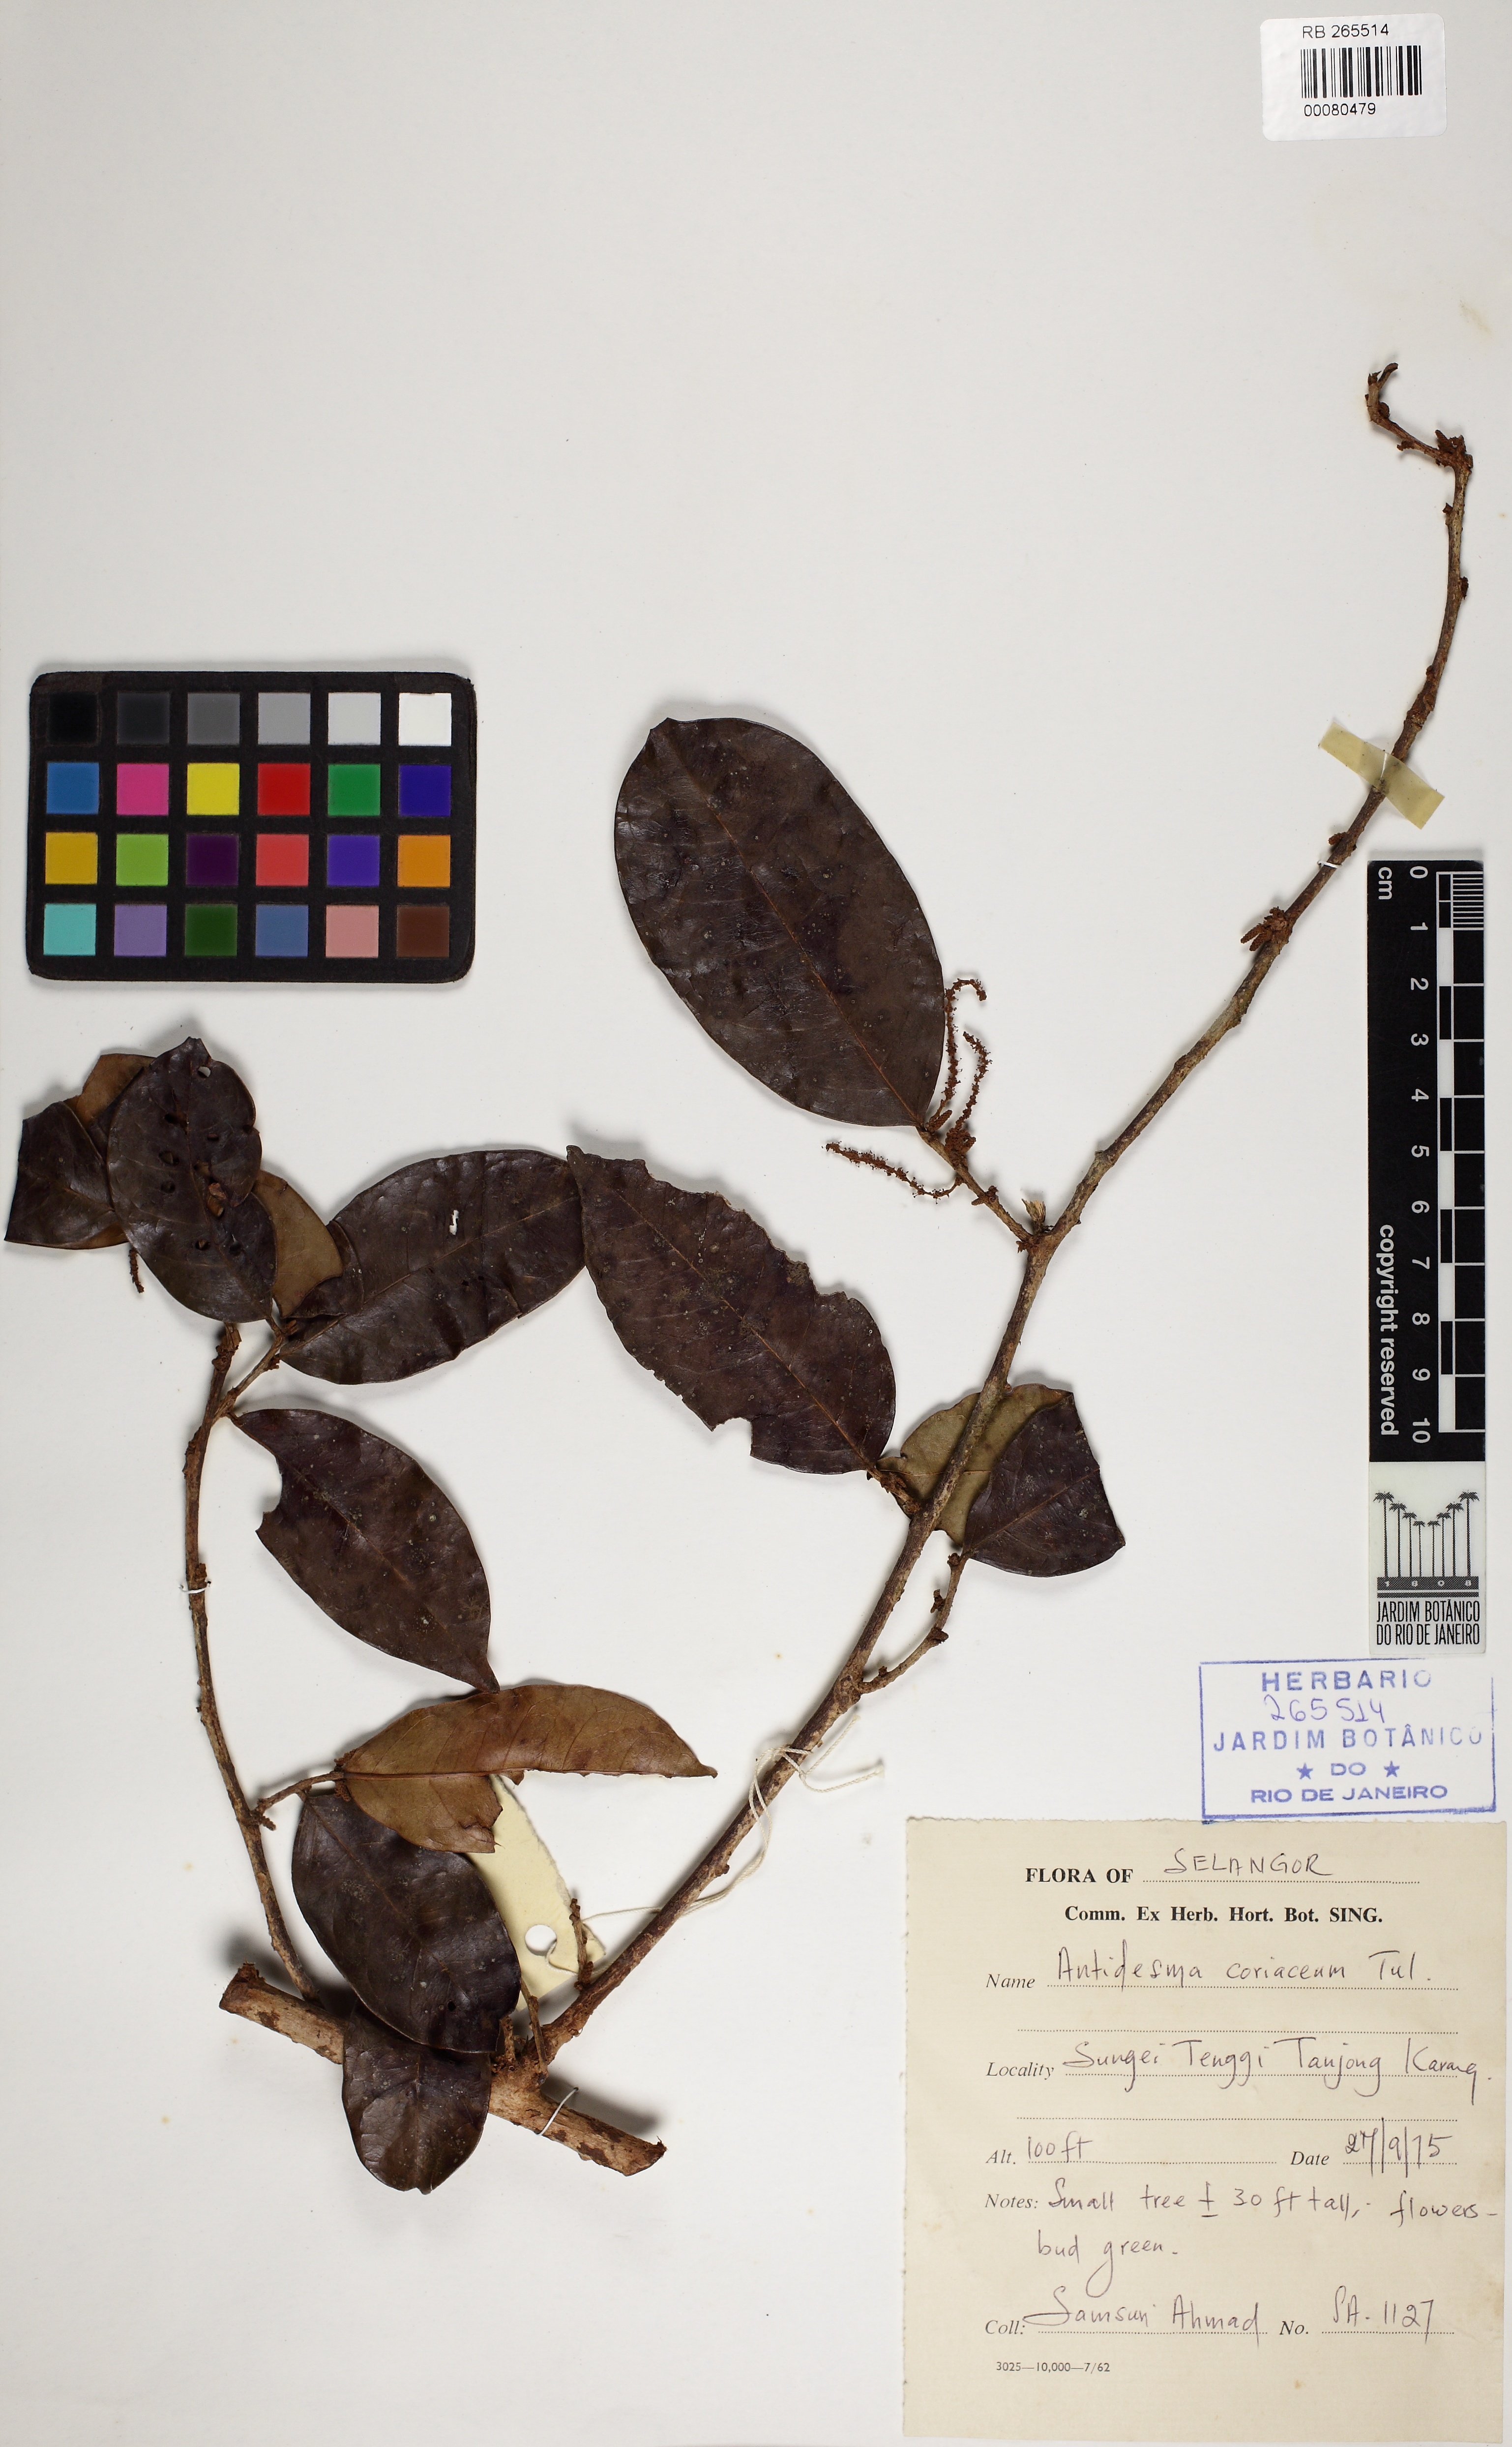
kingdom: Plantae
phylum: Tracheophyta
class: Magnoliopsida
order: Malpighiales
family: Euphorbiaceae
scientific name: Euphorbiaceae
